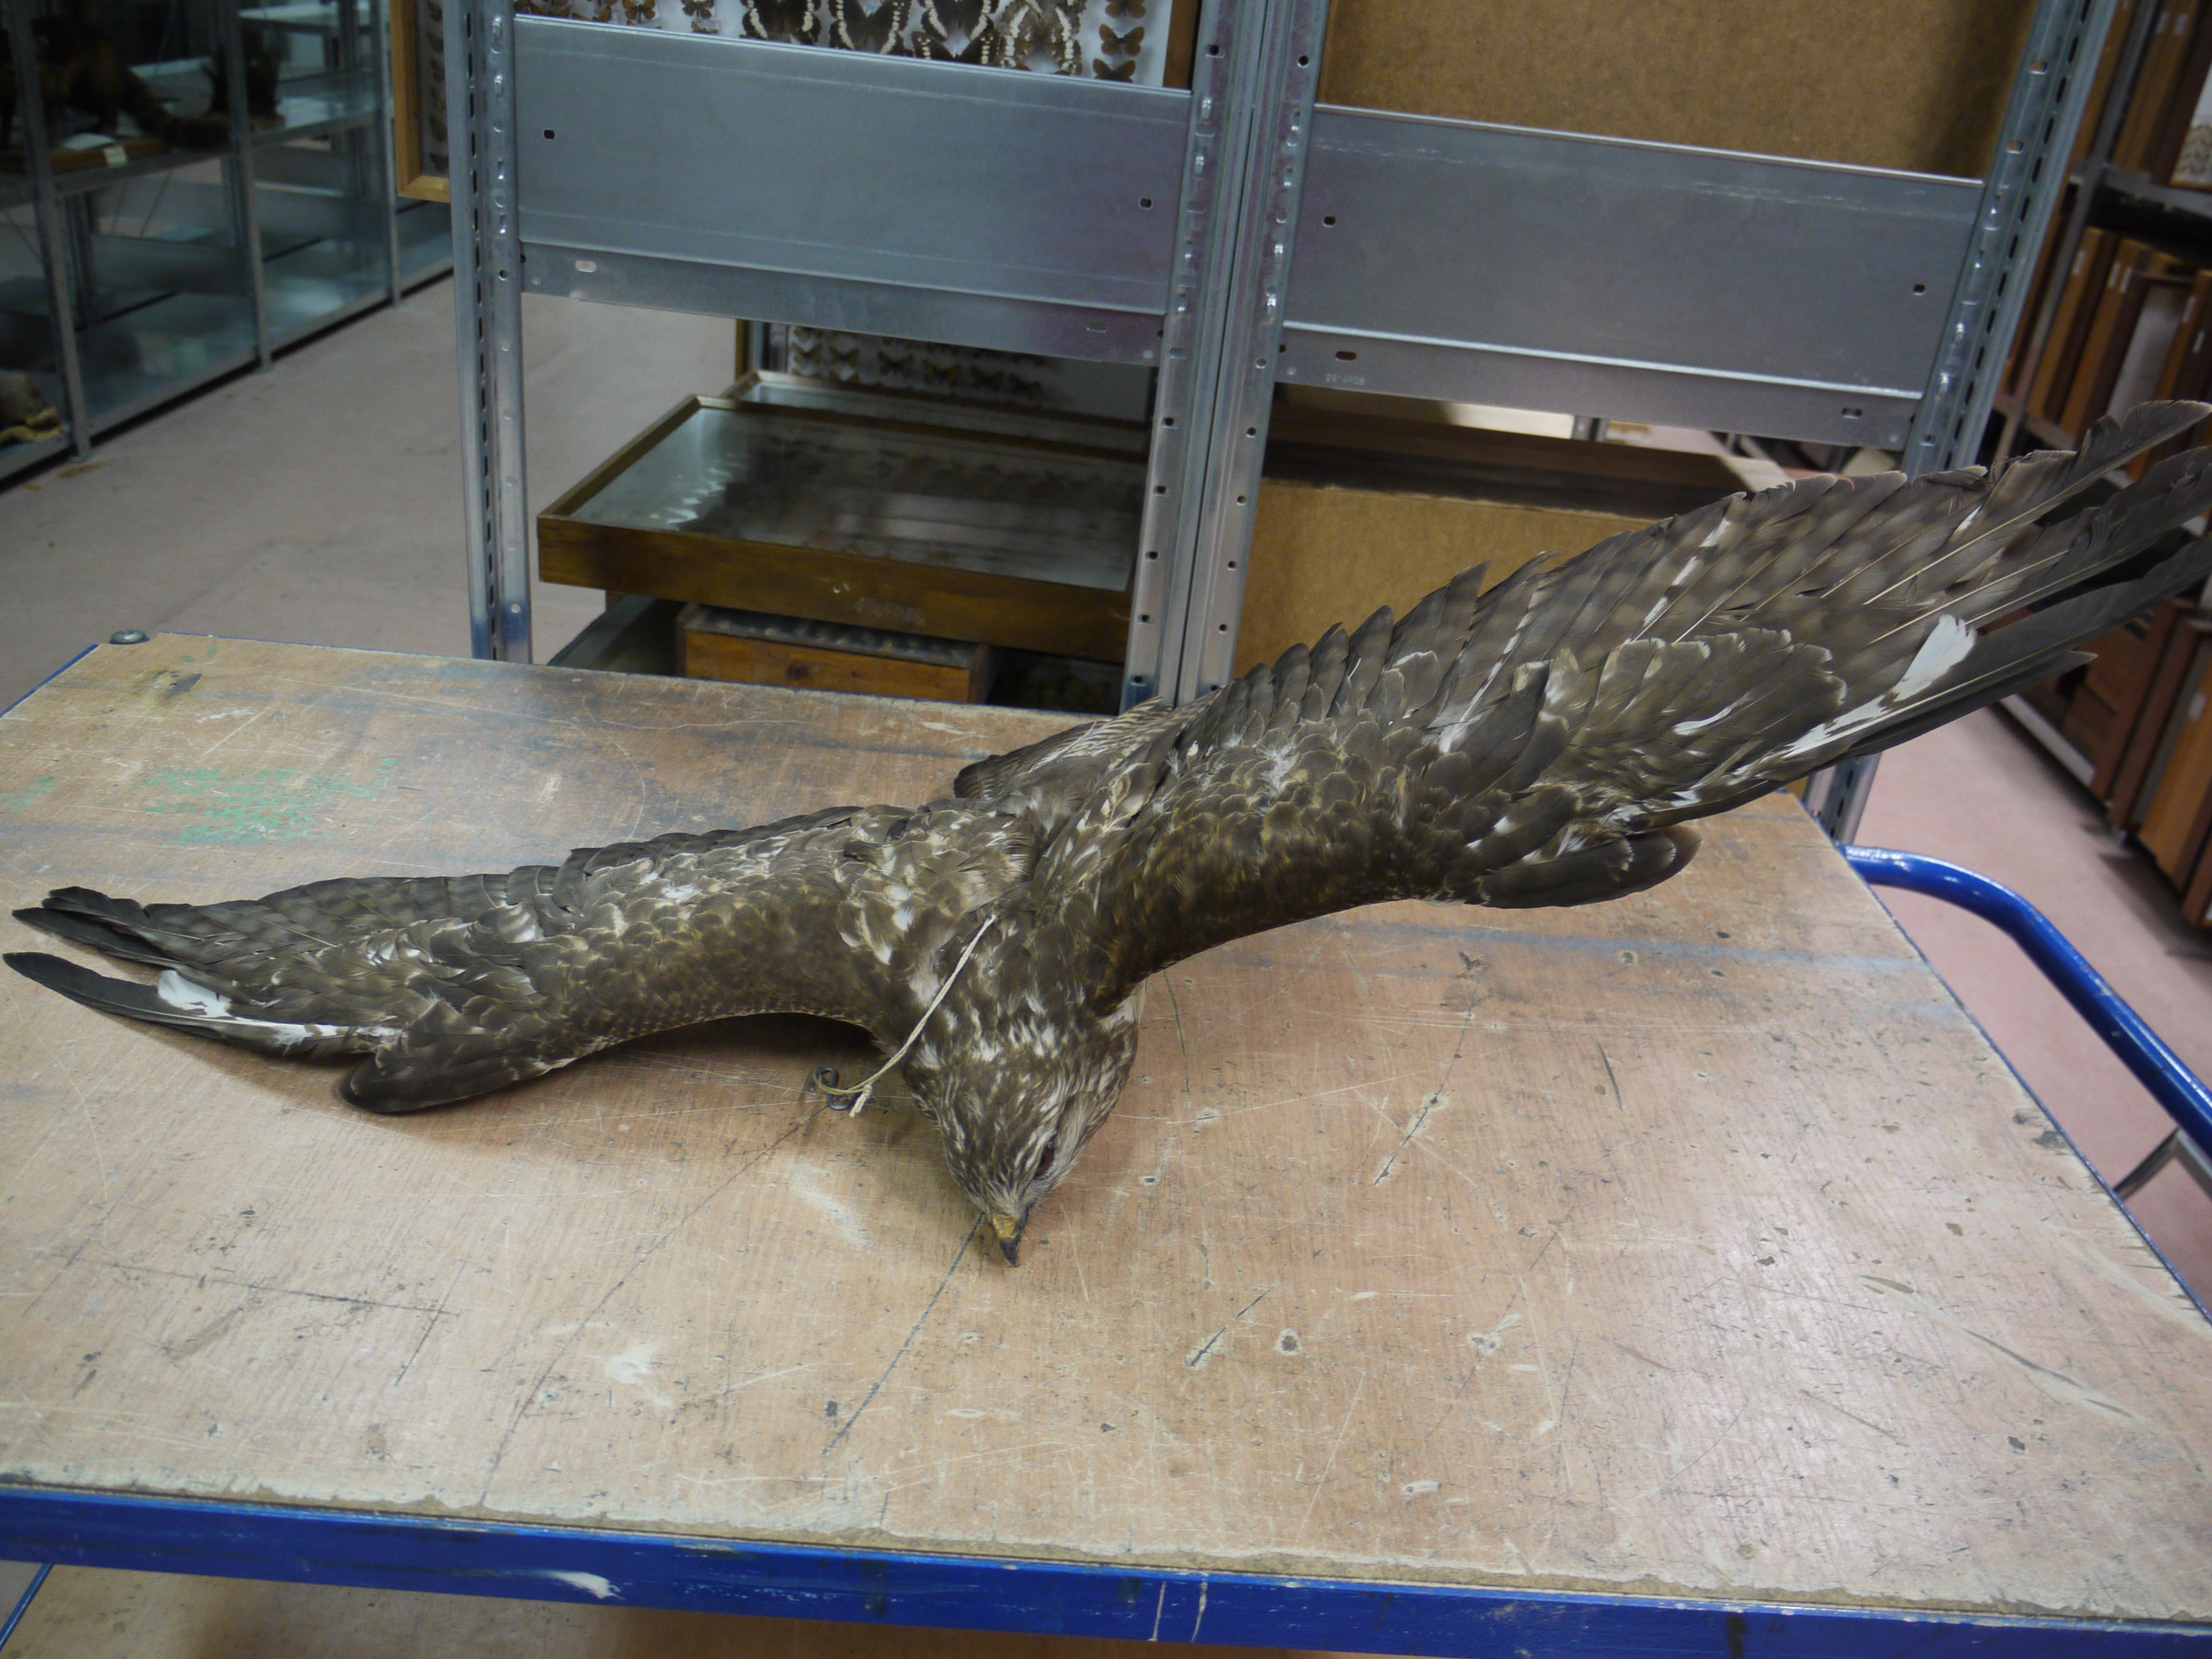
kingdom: Animalia
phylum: Chordata
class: Aves
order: Accipitriformes
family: Accipitridae
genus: Buteo
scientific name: Buteo buteo
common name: Common buzzard
